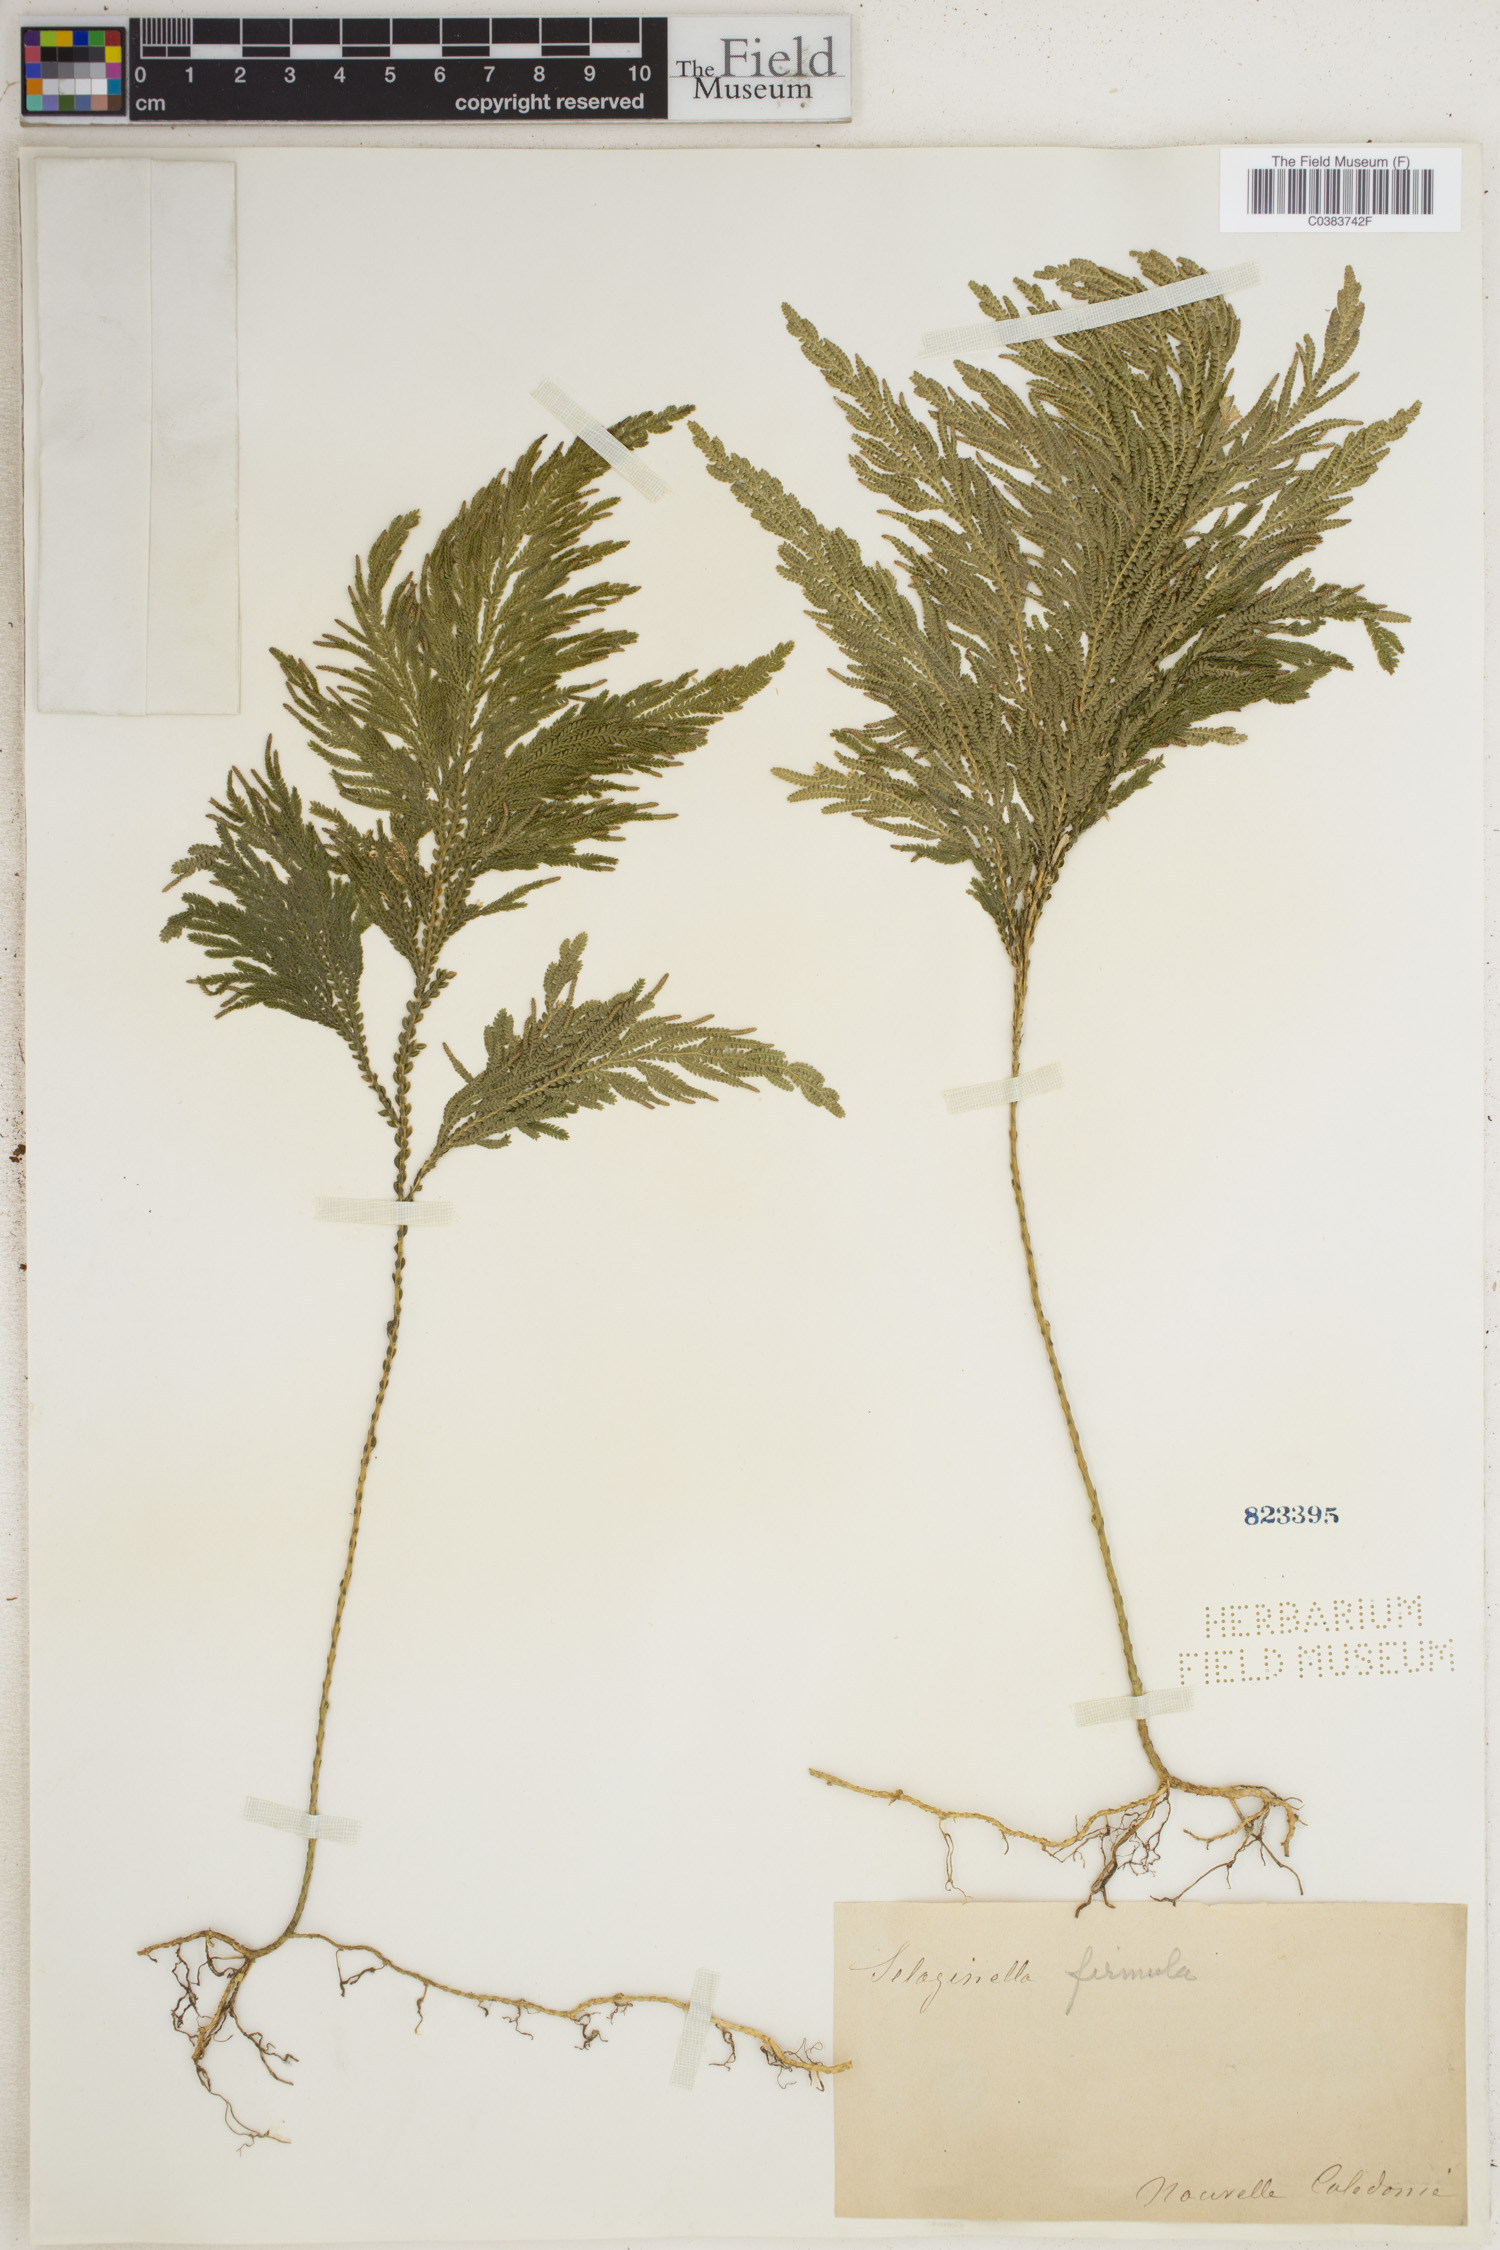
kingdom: Plantae
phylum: Tracheophyta
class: Lycopodiopsida
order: Selaginellales
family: Selaginellaceae
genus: Selaginella
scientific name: Selaginella firmula
